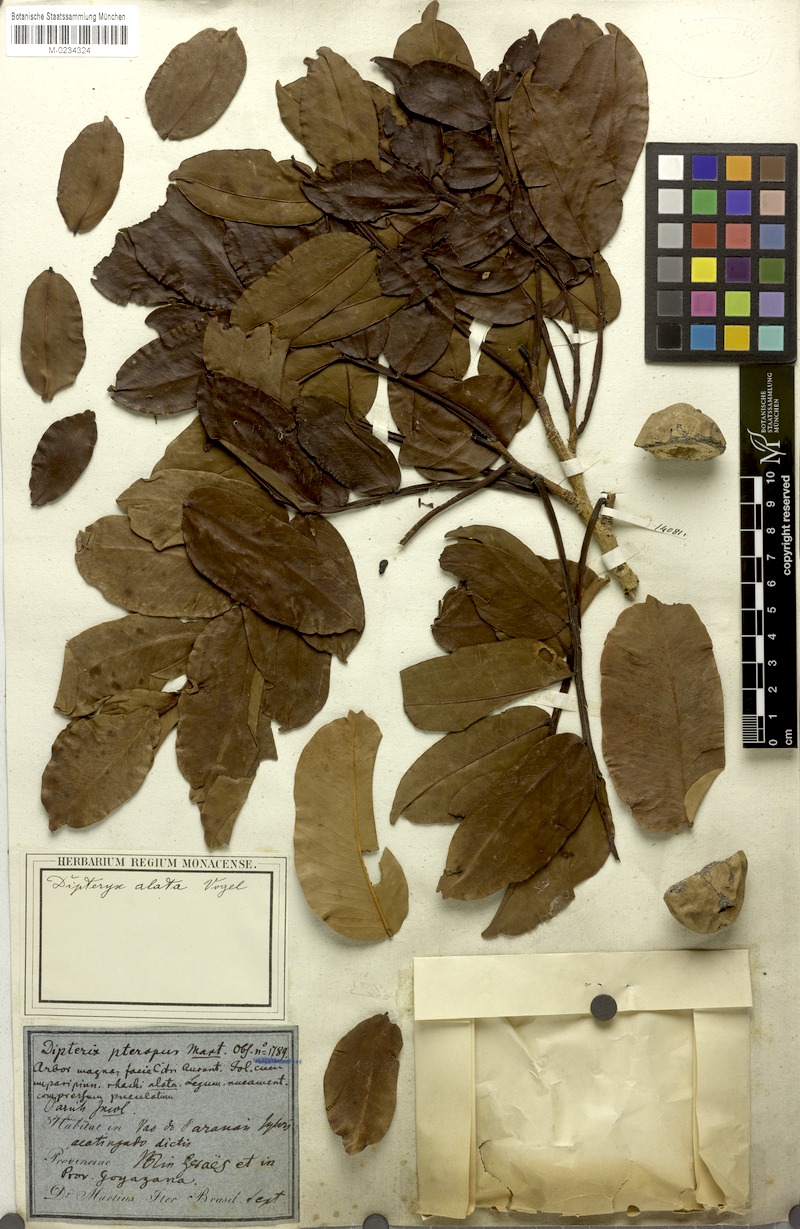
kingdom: Plantae
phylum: Tracheophyta
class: Magnoliopsida
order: Fabales
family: Fabaceae
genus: Dipteryx
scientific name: Dipteryx alata
